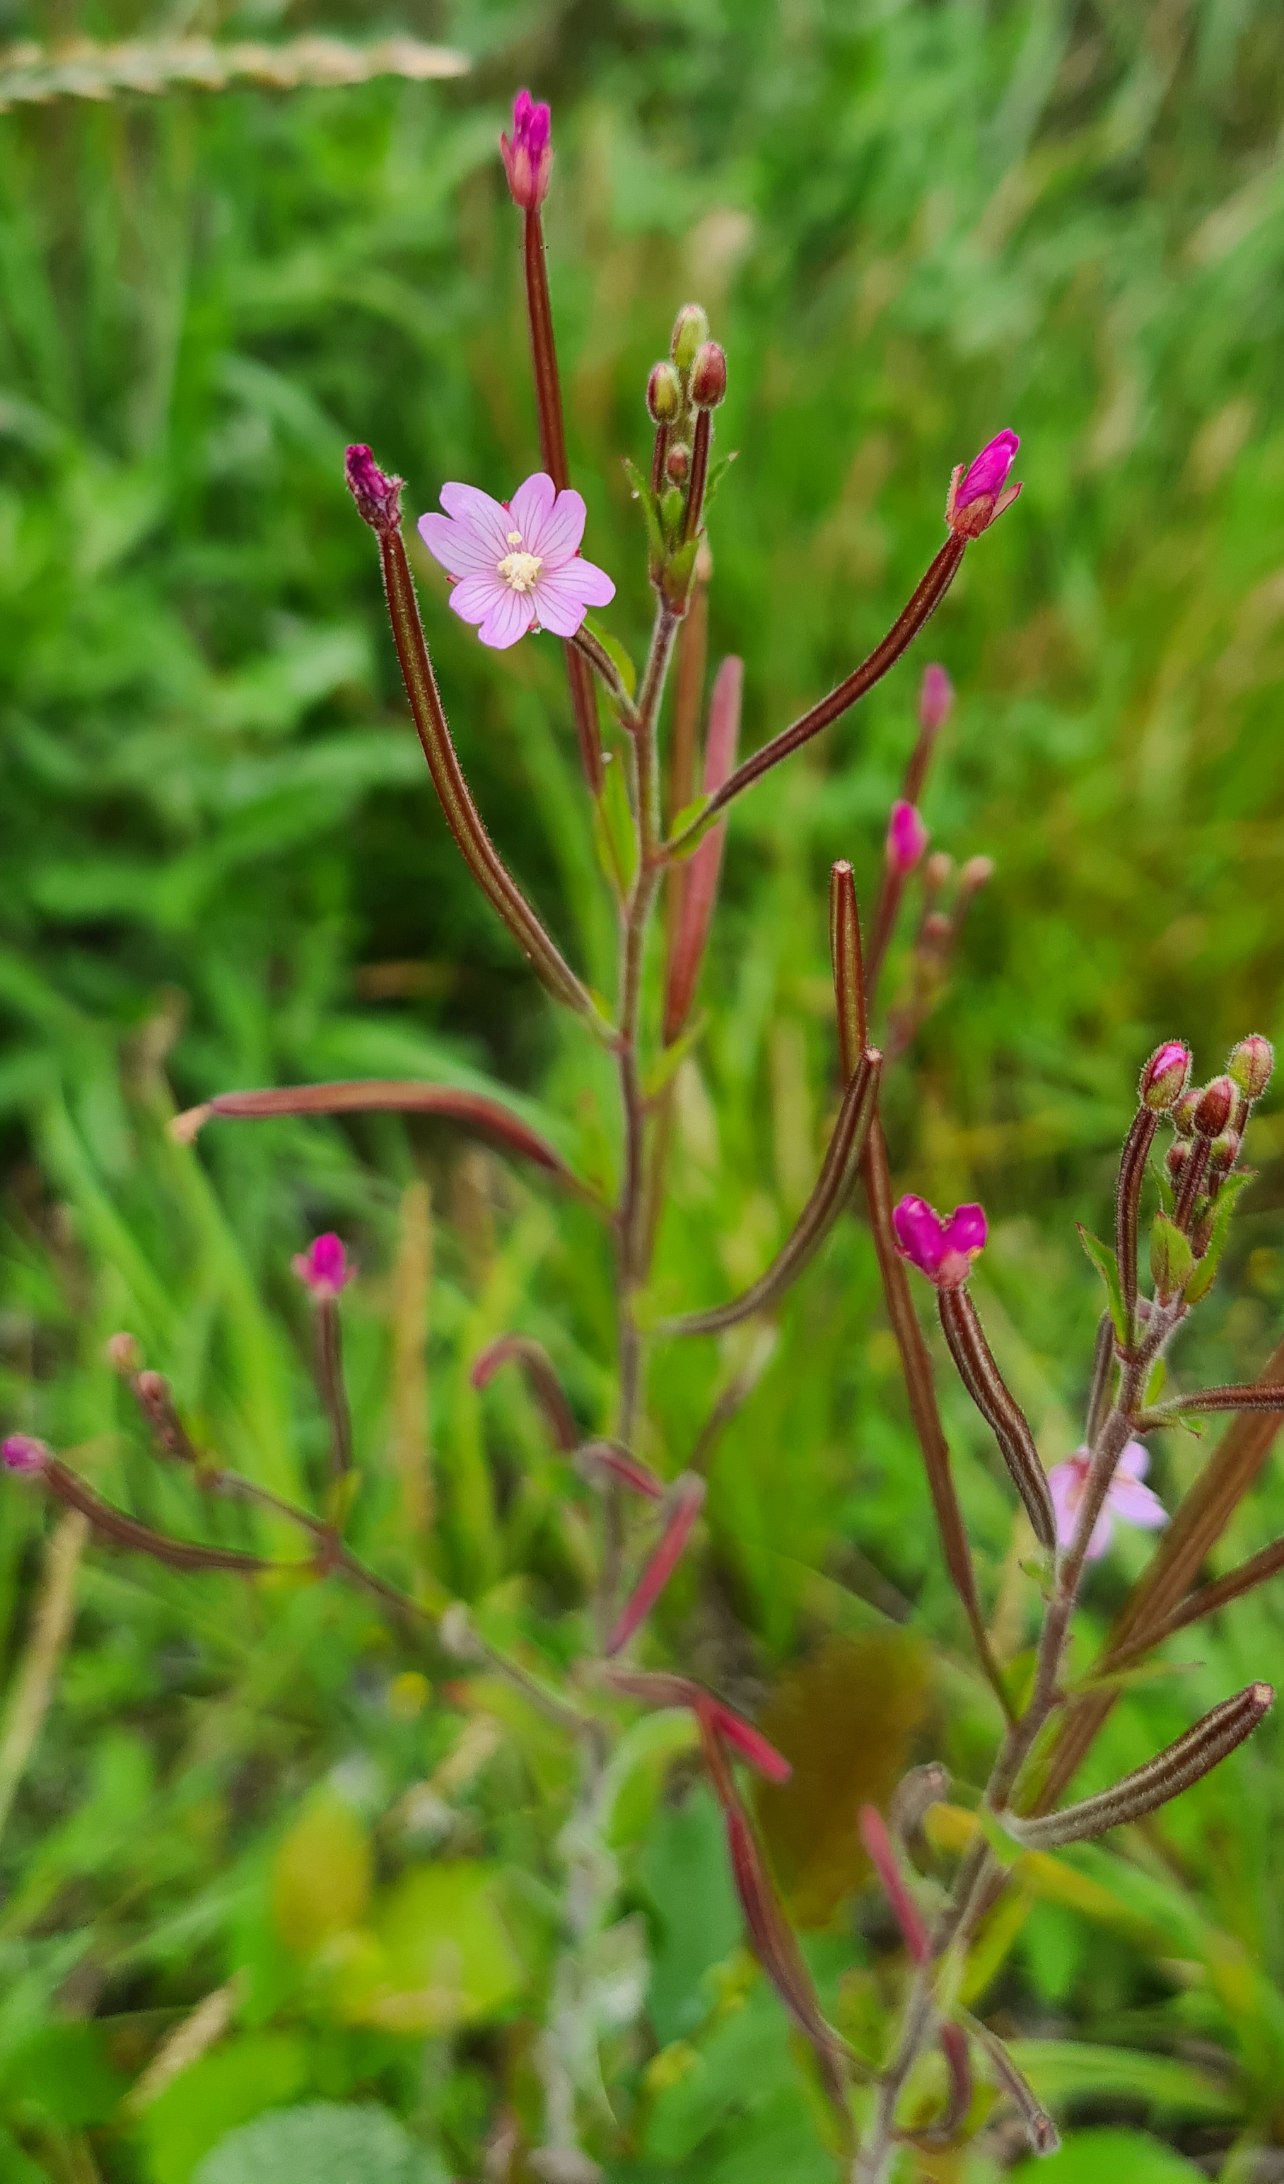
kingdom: Plantae
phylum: Tracheophyta
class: Magnoliopsida
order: Myrtales
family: Onagraceae
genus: Epilobium
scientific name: Epilobium parviflorum
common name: Dunet dueurt
